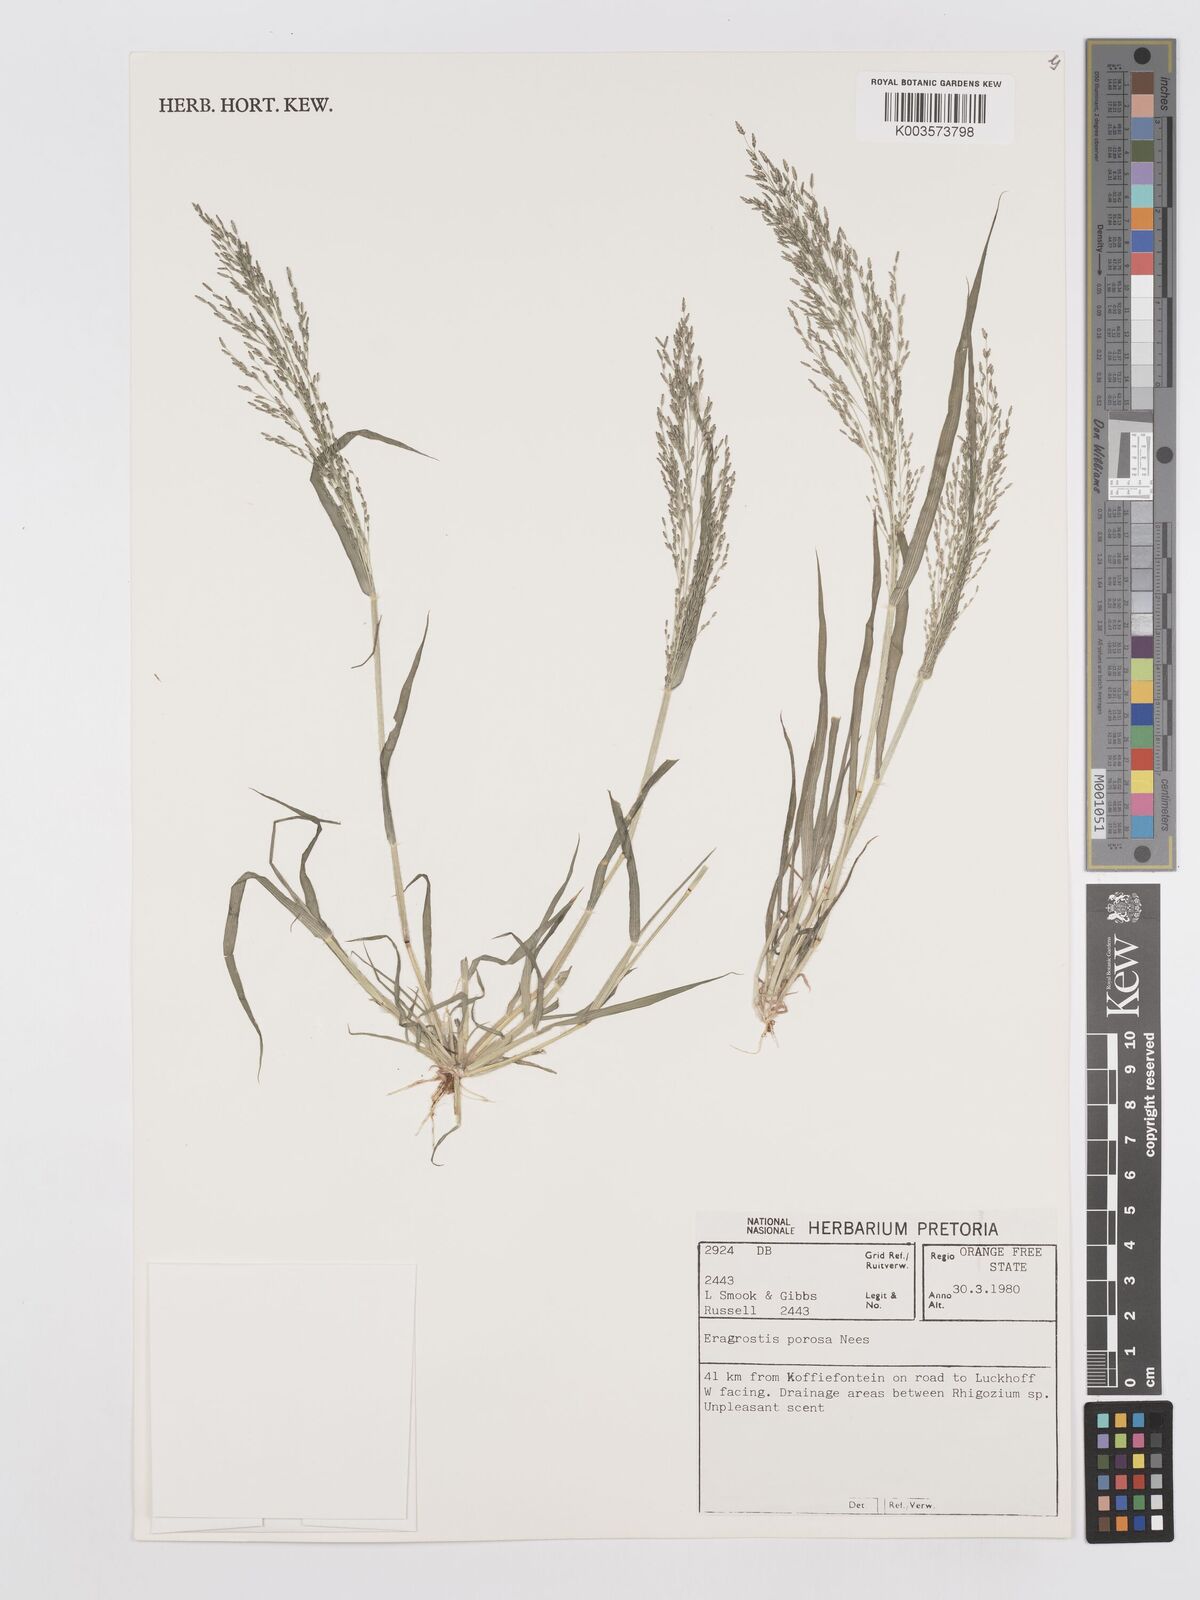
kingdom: Plantae
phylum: Tracheophyta
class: Liliopsida
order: Poales
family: Poaceae
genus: Eragrostis
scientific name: Eragrostis porosa
